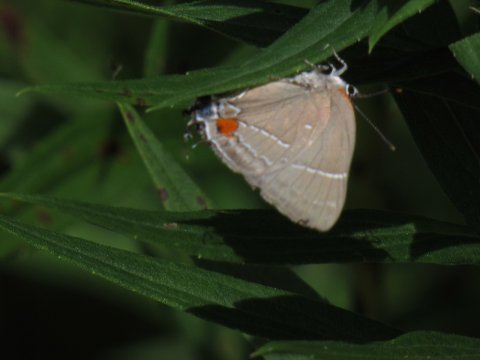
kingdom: Animalia
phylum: Arthropoda
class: Insecta
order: Lepidoptera
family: Lycaenidae
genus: Parrhasius
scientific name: Parrhasius m-album
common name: White-m Hairstreak
